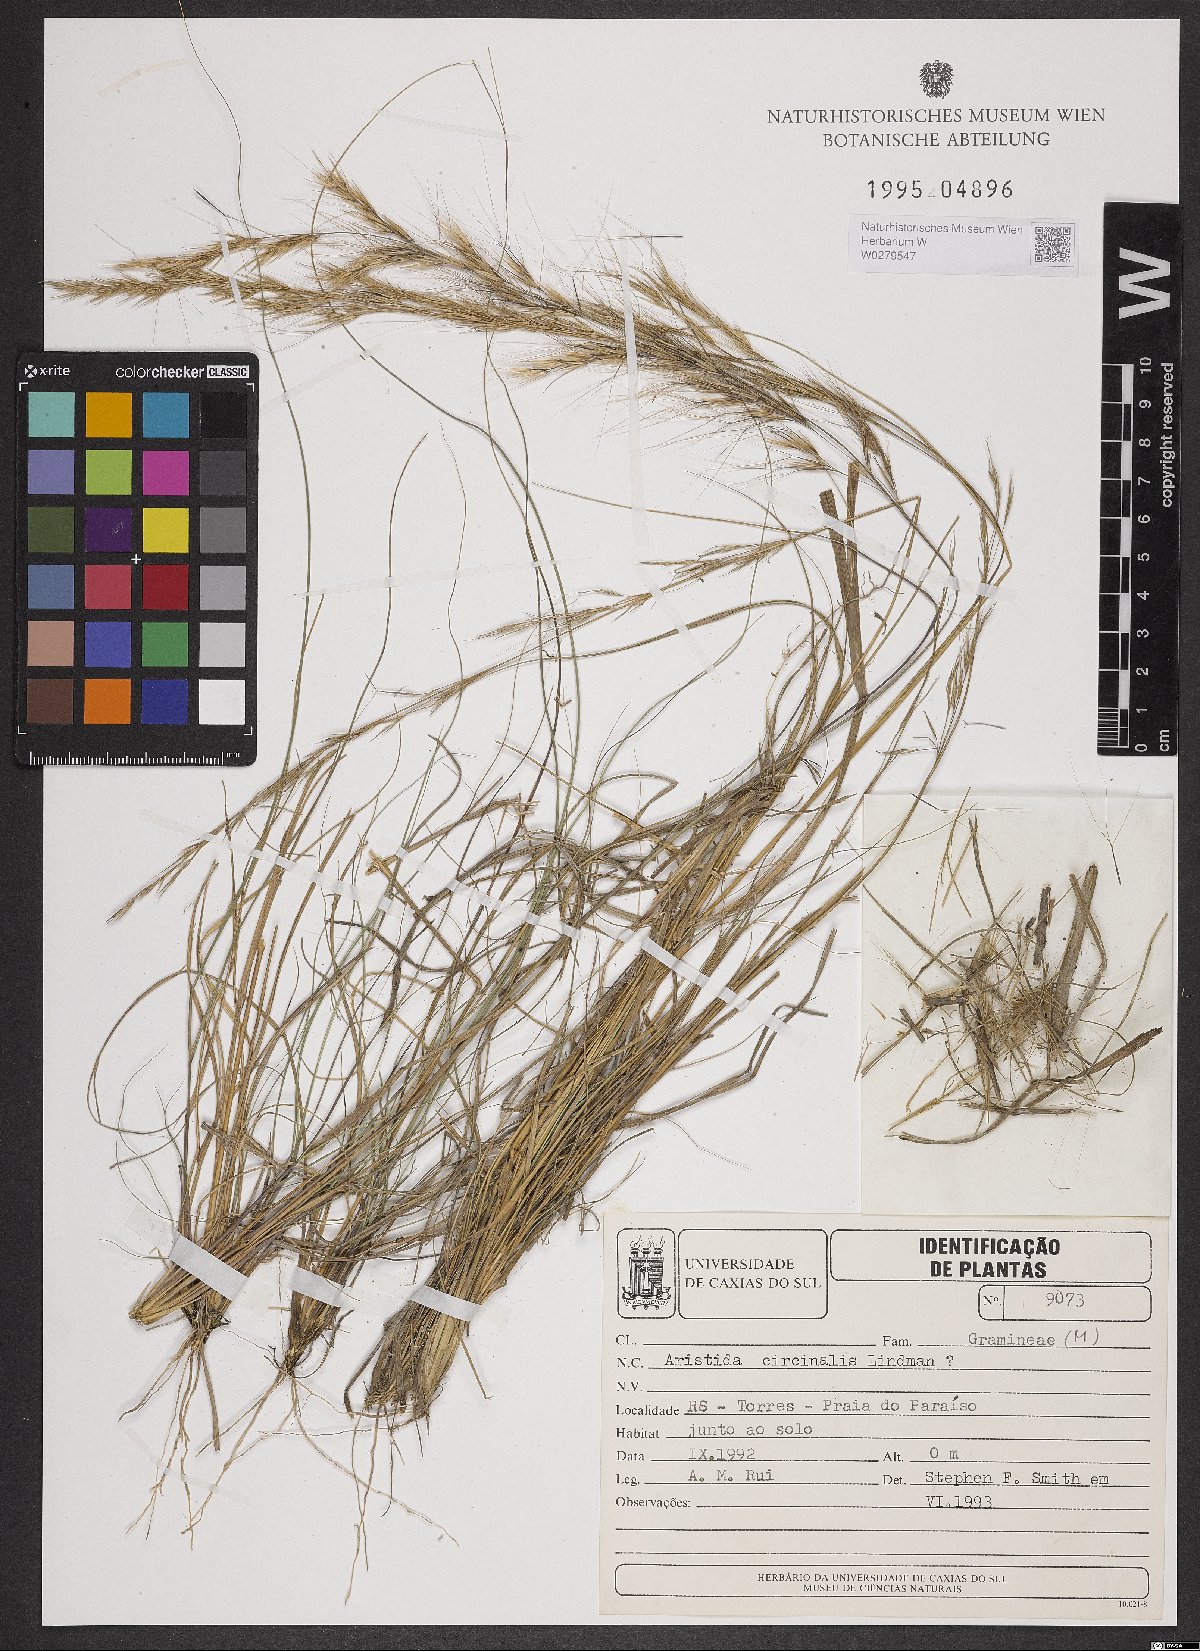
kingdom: Plantae
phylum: Tracheophyta
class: Liliopsida
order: Poales
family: Poaceae
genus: Aristida
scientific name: Aristida circinalis
